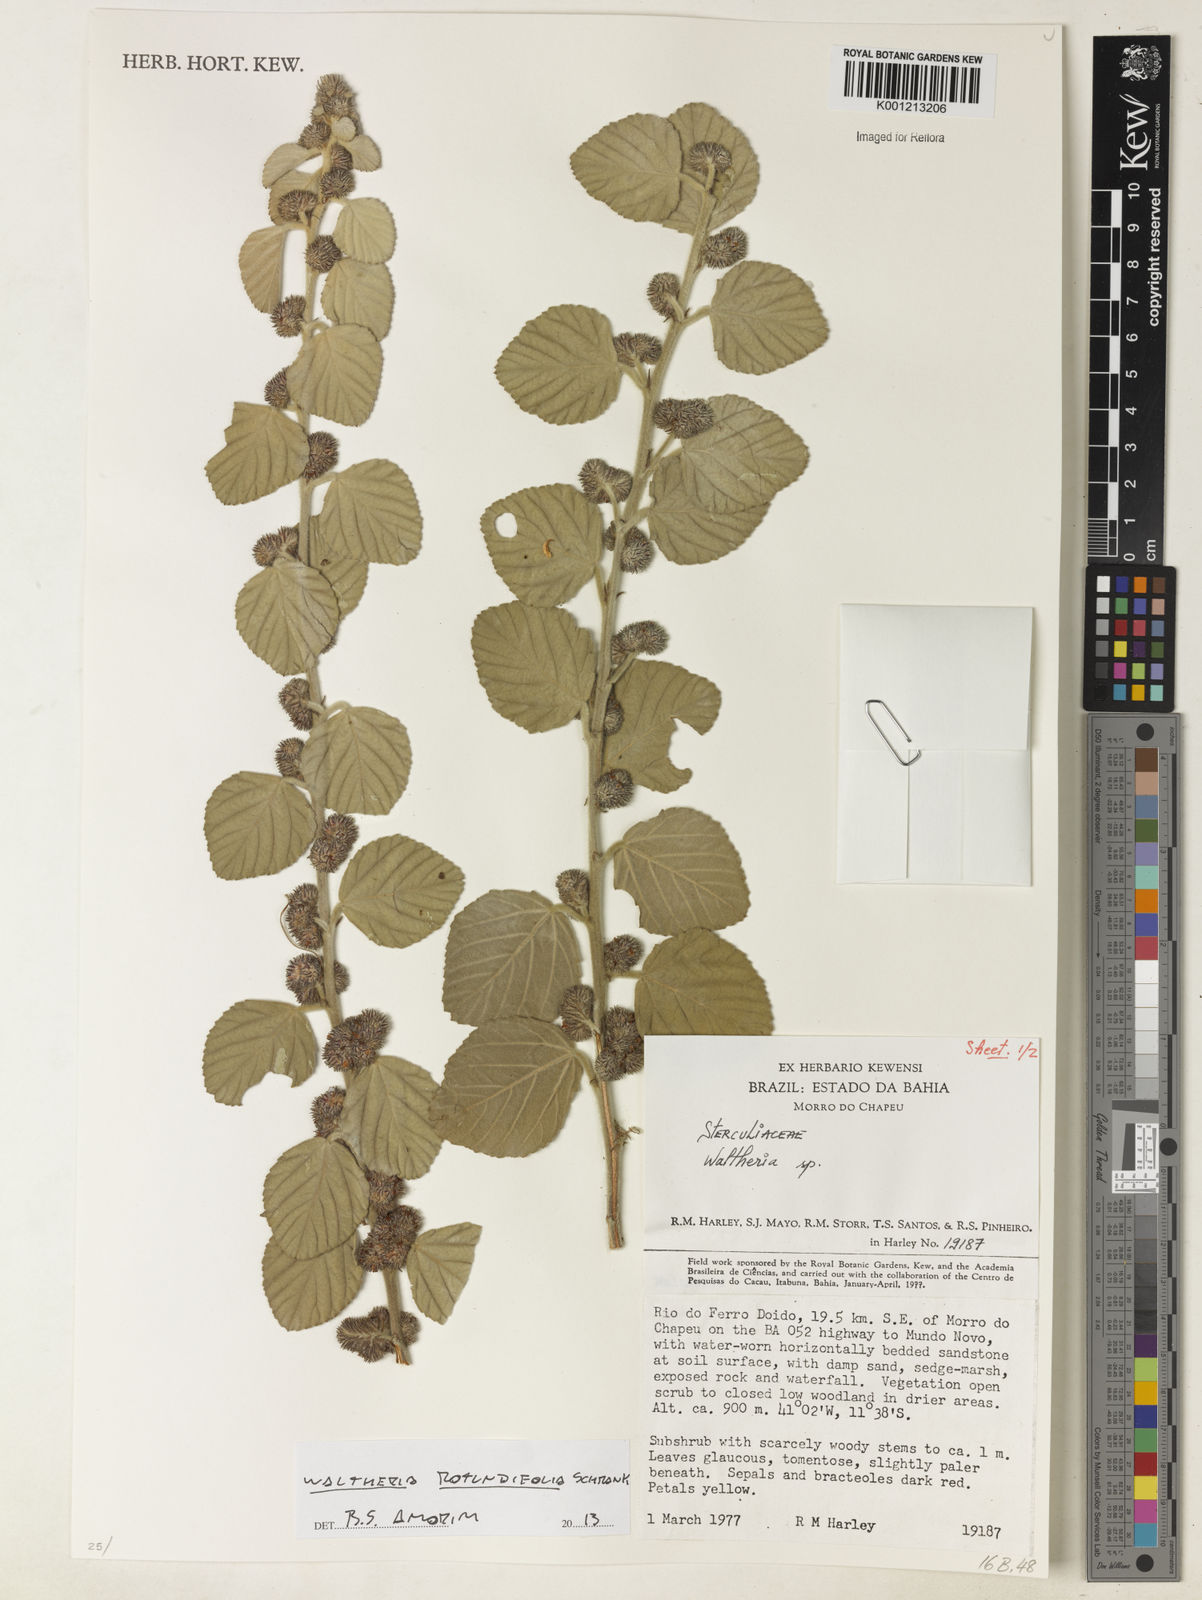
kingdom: Plantae
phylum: Tracheophyta
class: Magnoliopsida
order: Malvales
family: Malvaceae
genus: Waltheria
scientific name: Waltheria rotundifolia
